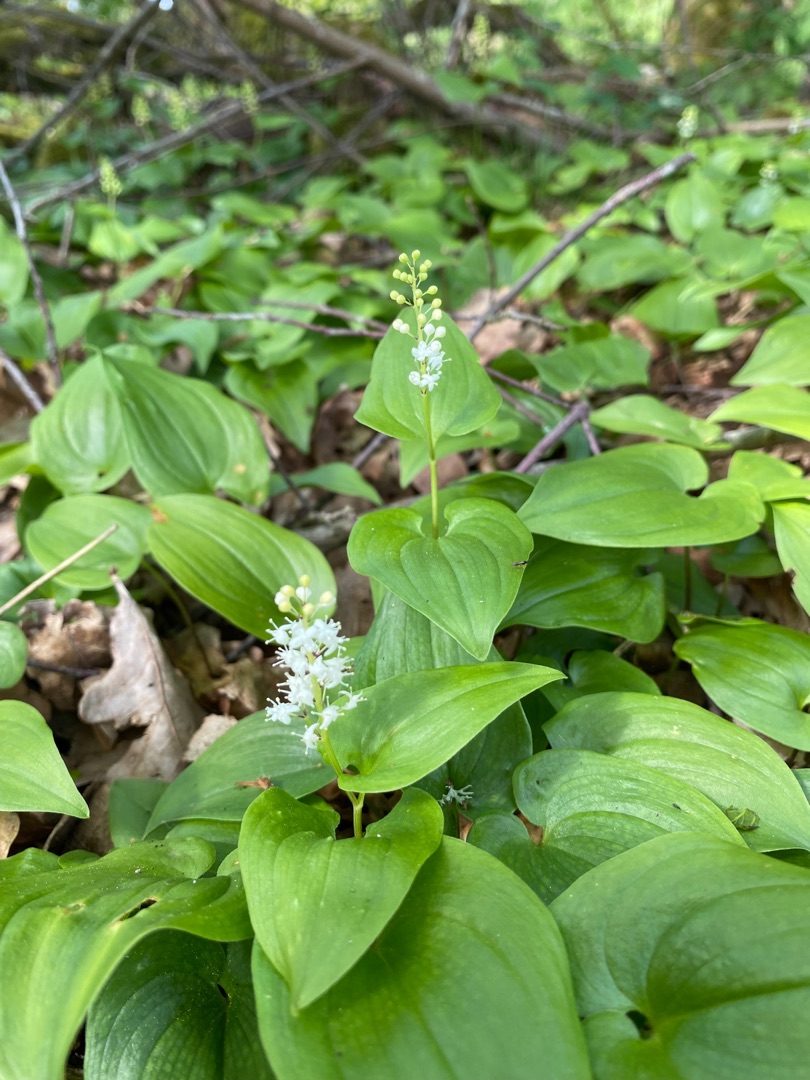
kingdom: Plantae
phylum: Tracheophyta
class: Liliopsida
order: Asparagales
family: Asparagaceae
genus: Maianthemum
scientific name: Maianthemum bifolium
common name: Majblomst
